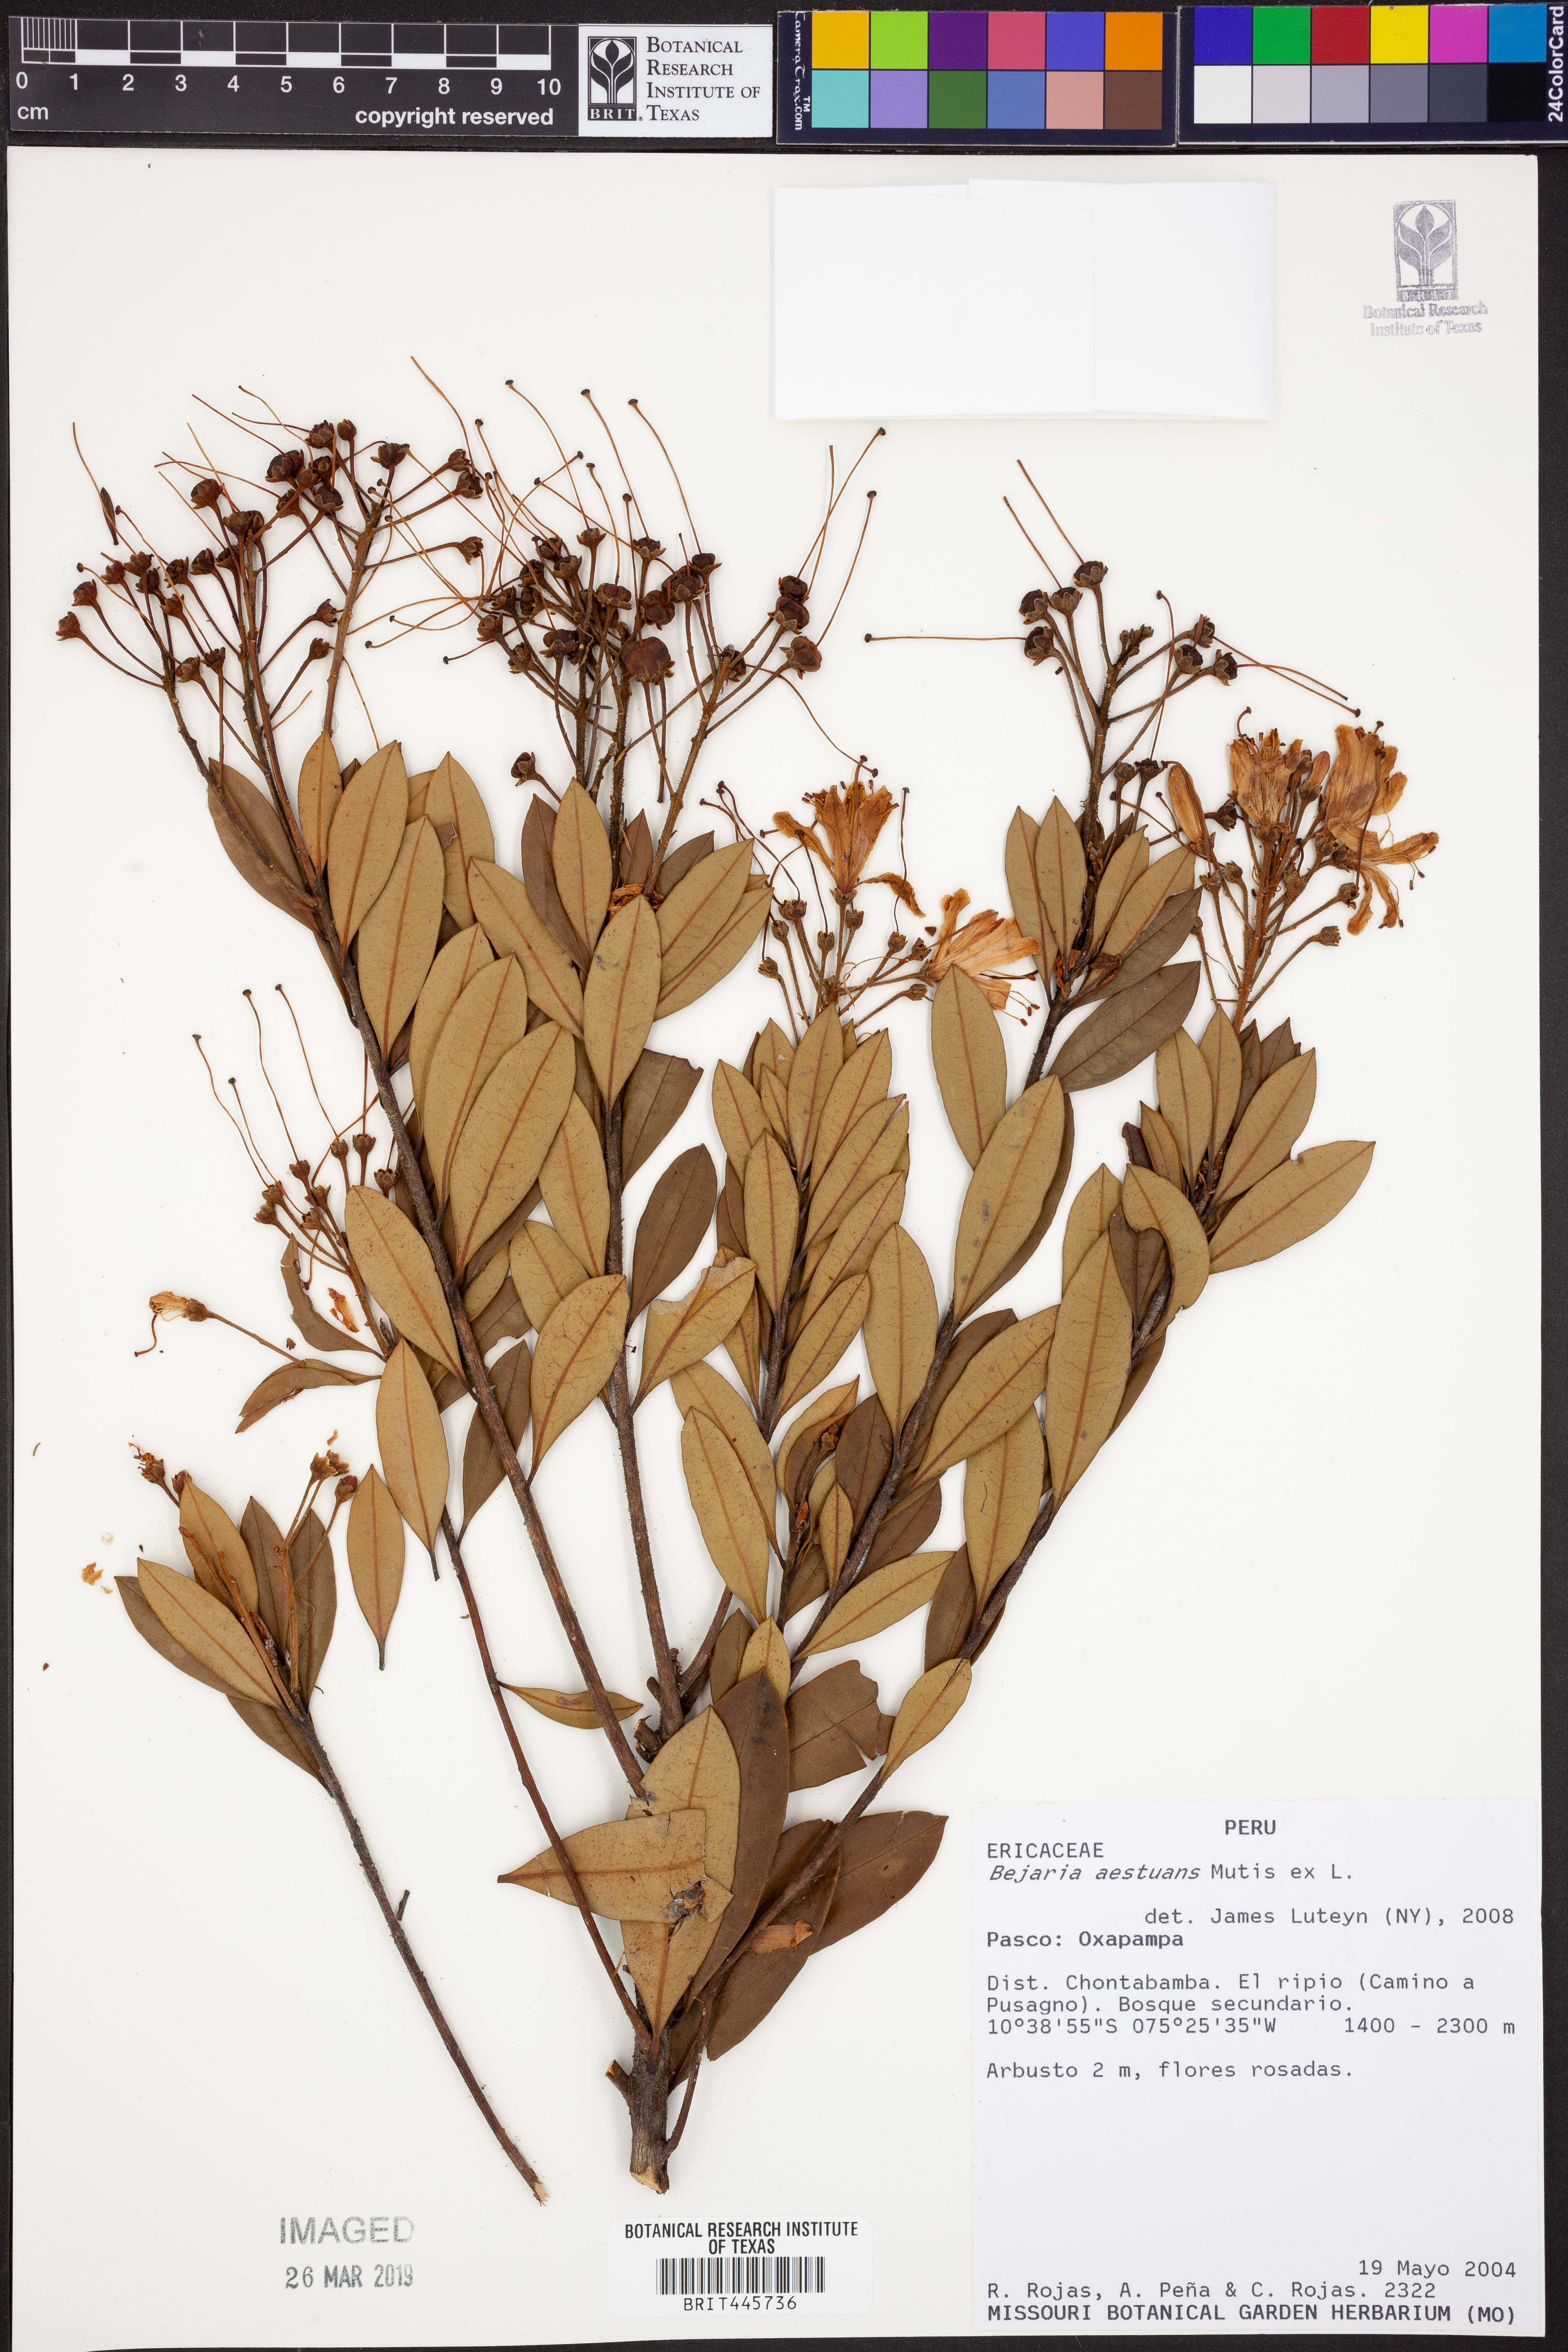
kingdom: Plantae
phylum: Tracheophyta
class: Magnoliopsida
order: Ericales
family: Ericaceae
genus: Bejaria
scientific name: Bejaria aestuans
